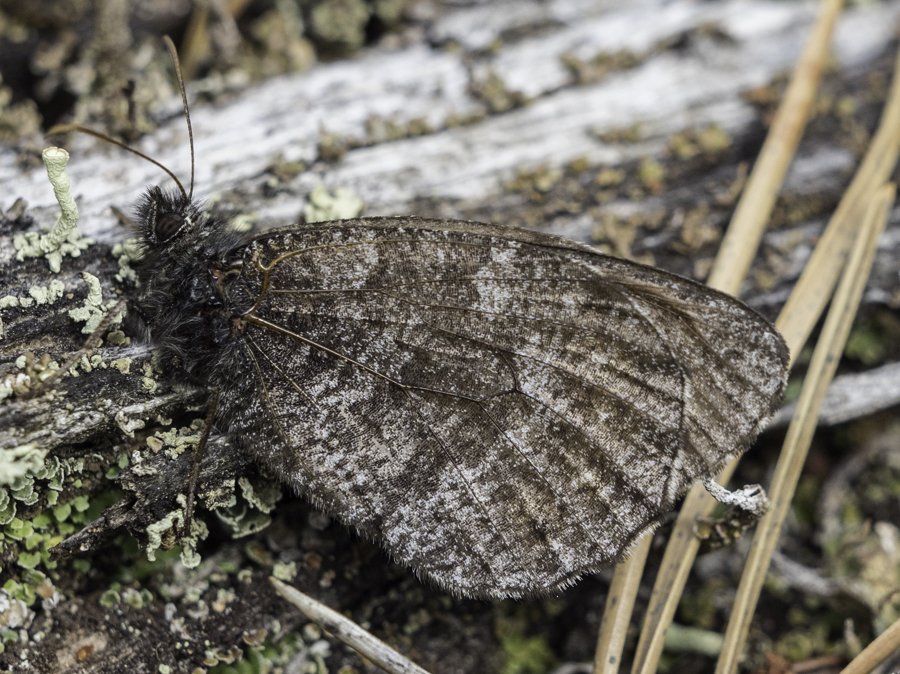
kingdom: Animalia
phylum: Arthropoda
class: Insecta
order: Lepidoptera
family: Nymphalidae
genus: Oeneis
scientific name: Oeneis jutta
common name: Jutta Arctic
